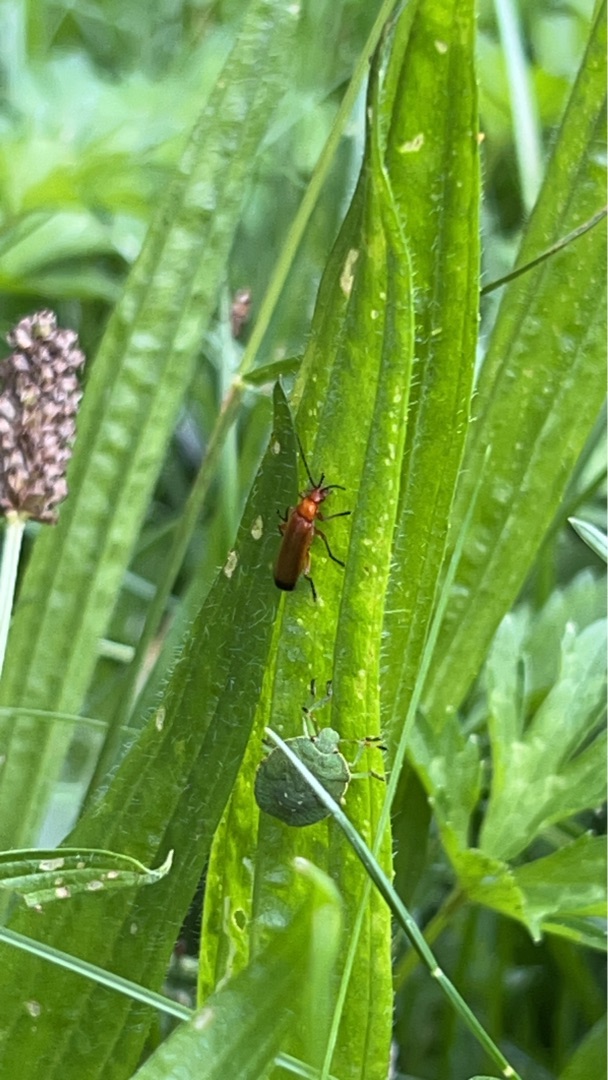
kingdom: Animalia
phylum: Arthropoda
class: Insecta
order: Coleoptera
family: Cantharidae
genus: Rhagonycha
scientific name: Rhagonycha fulva
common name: Præstebille
